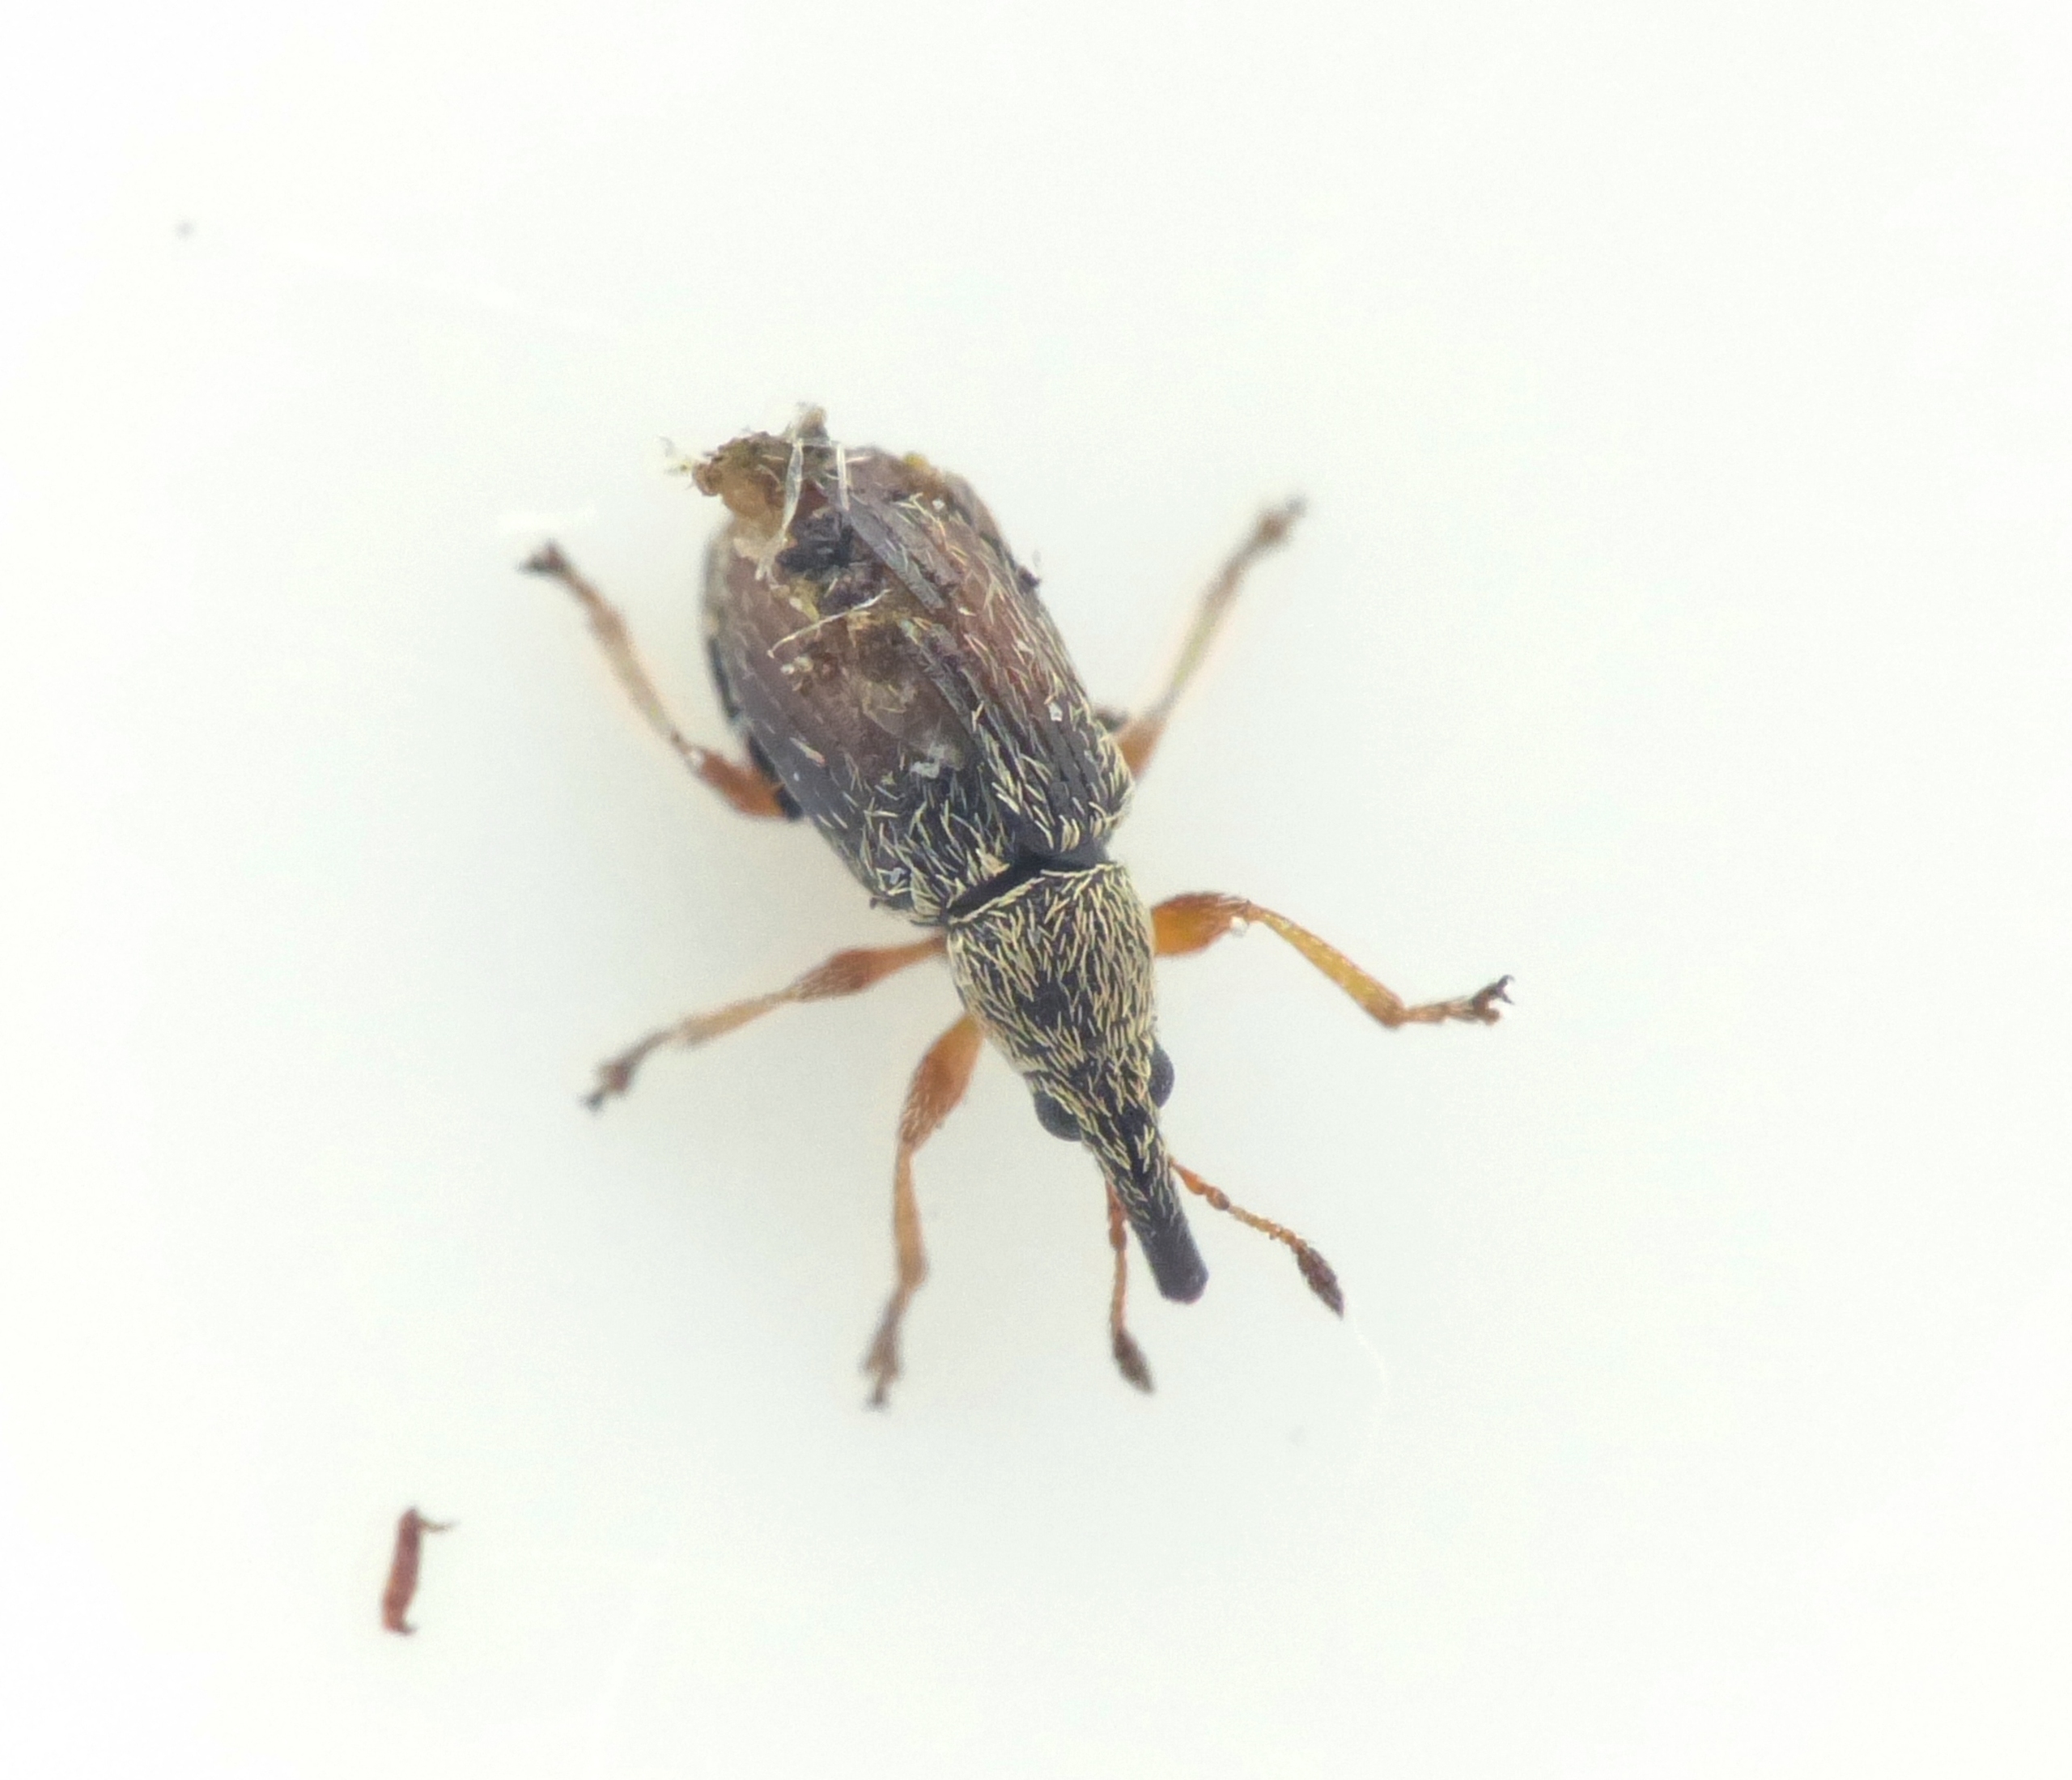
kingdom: Animalia
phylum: Arthropoda
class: Insecta
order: Coleoptera
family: Apionidae
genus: Malvapion
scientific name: Malvapion malvae
